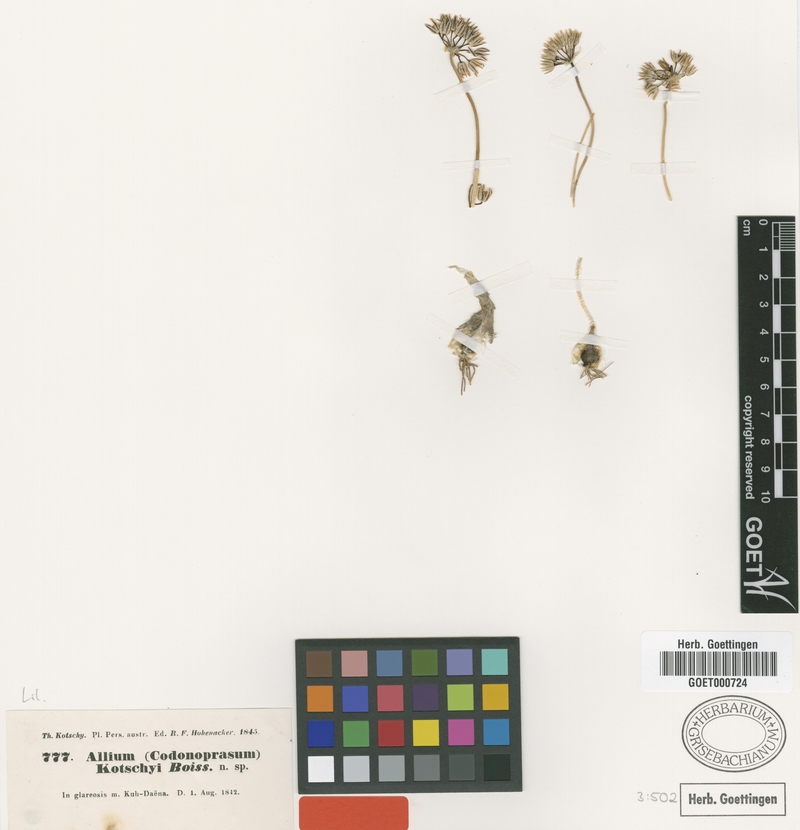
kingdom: Plantae
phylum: Tracheophyta
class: Liliopsida
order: Asparagales
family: Amaryllidaceae
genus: Allium
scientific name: Allium kotschyi
